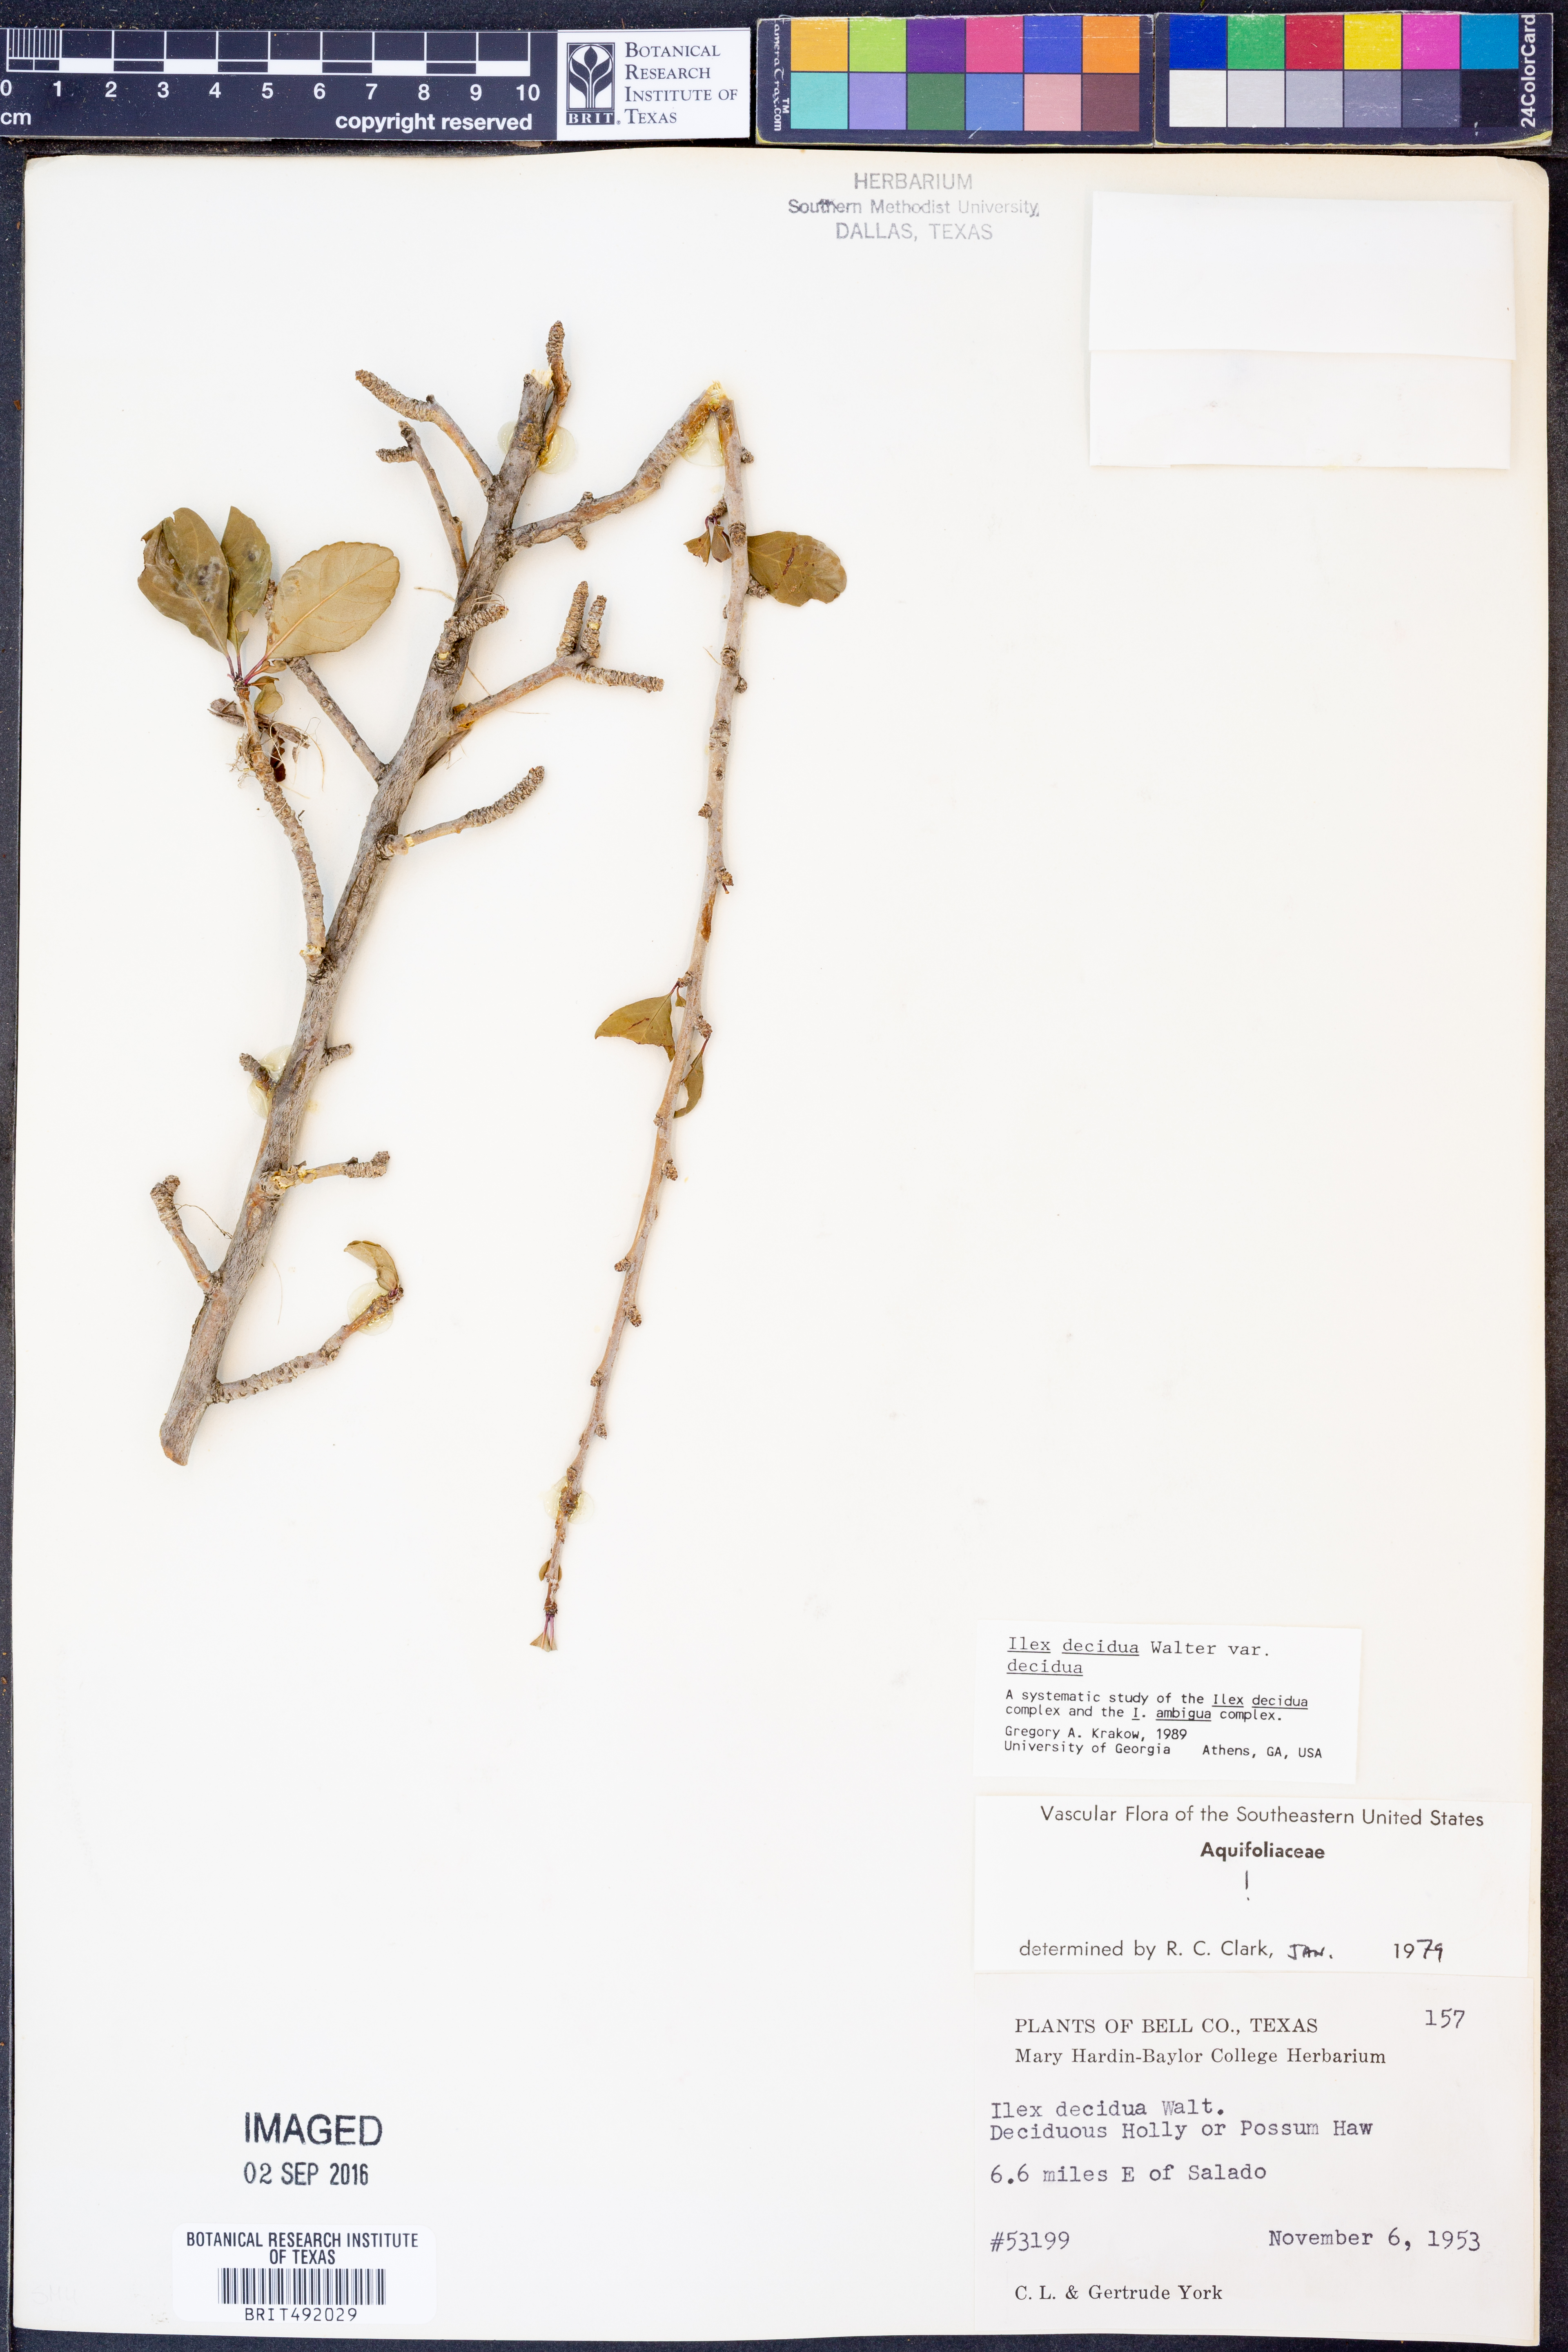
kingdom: Plantae
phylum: Tracheophyta
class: Magnoliopsida
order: Aquifoliales
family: Aquifoliaceae
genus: Ilex
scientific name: Ilex decidua
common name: Possum-haw
